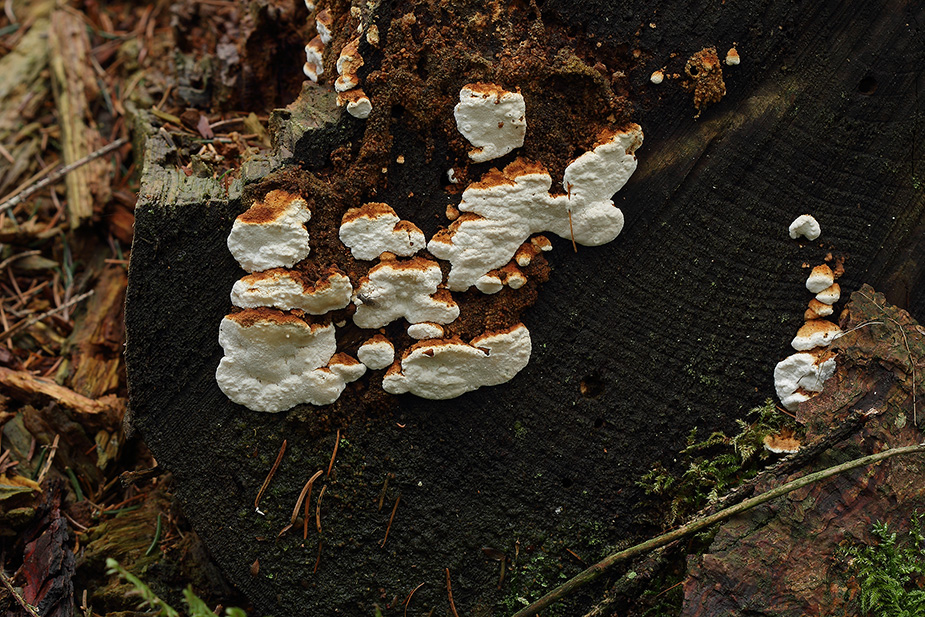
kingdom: Fungi
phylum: Basidiomycota
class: Agaricomycetes
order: Polyporales
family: Fomitopsidaceae
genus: Neoantrodia
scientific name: Neoantrodia serialis
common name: række-sejporesvamp
